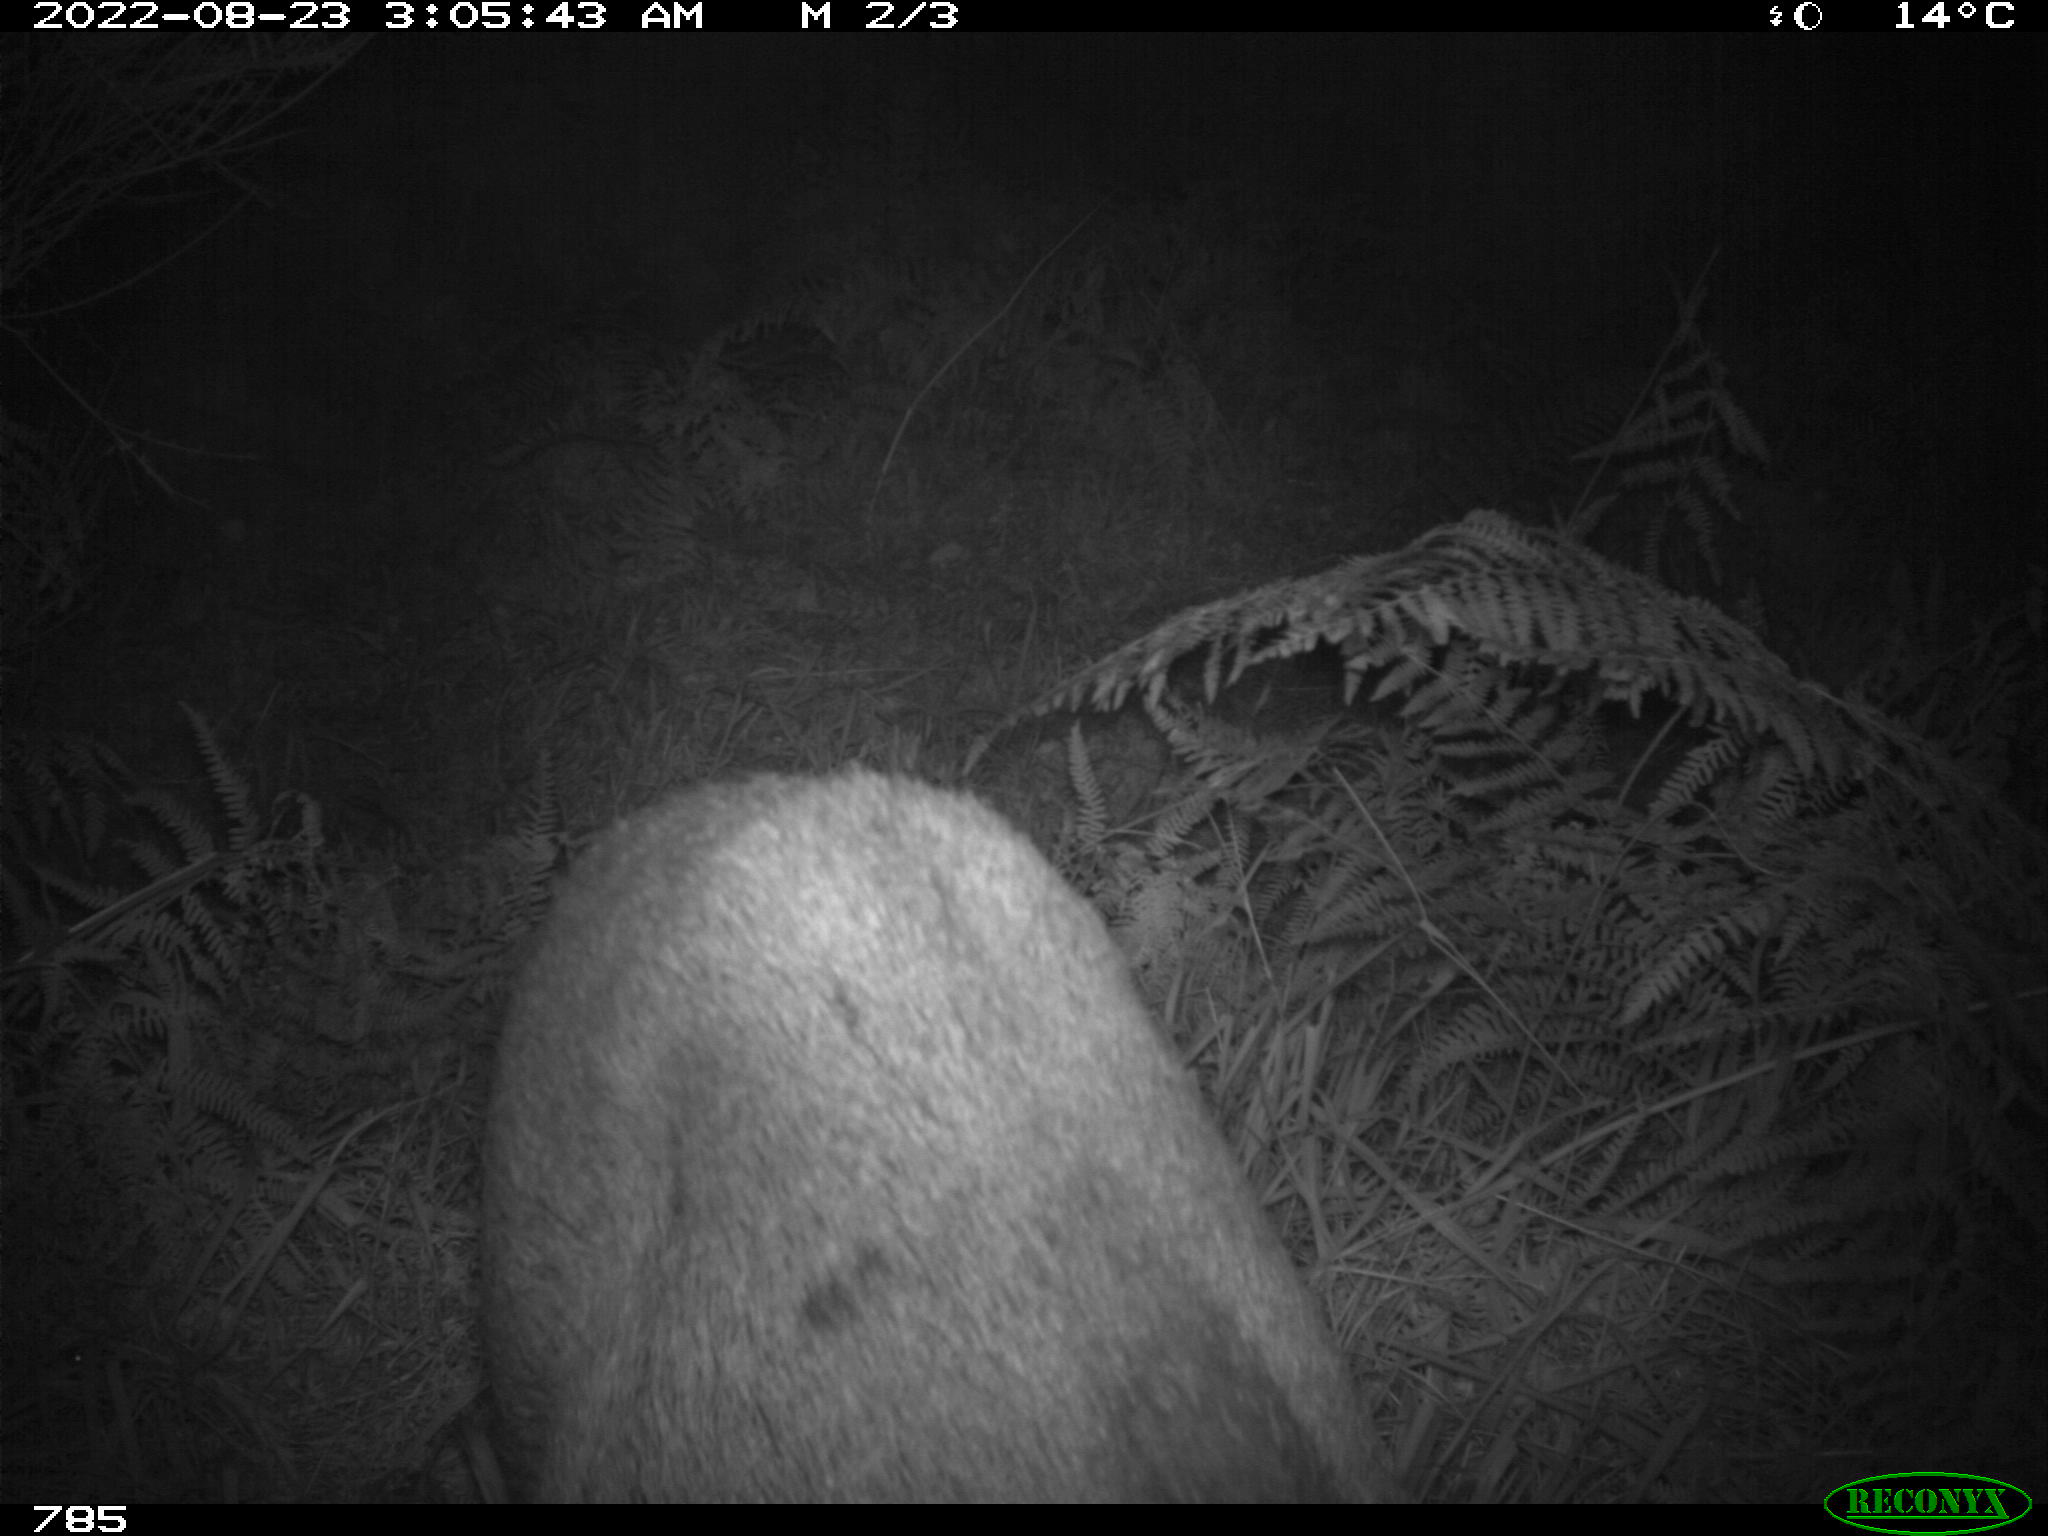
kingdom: Animalia
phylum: Chordata
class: Mammalia
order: Artiodactyla
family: Suidae
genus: Sus
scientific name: Sus scrofa
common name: Wild boar
